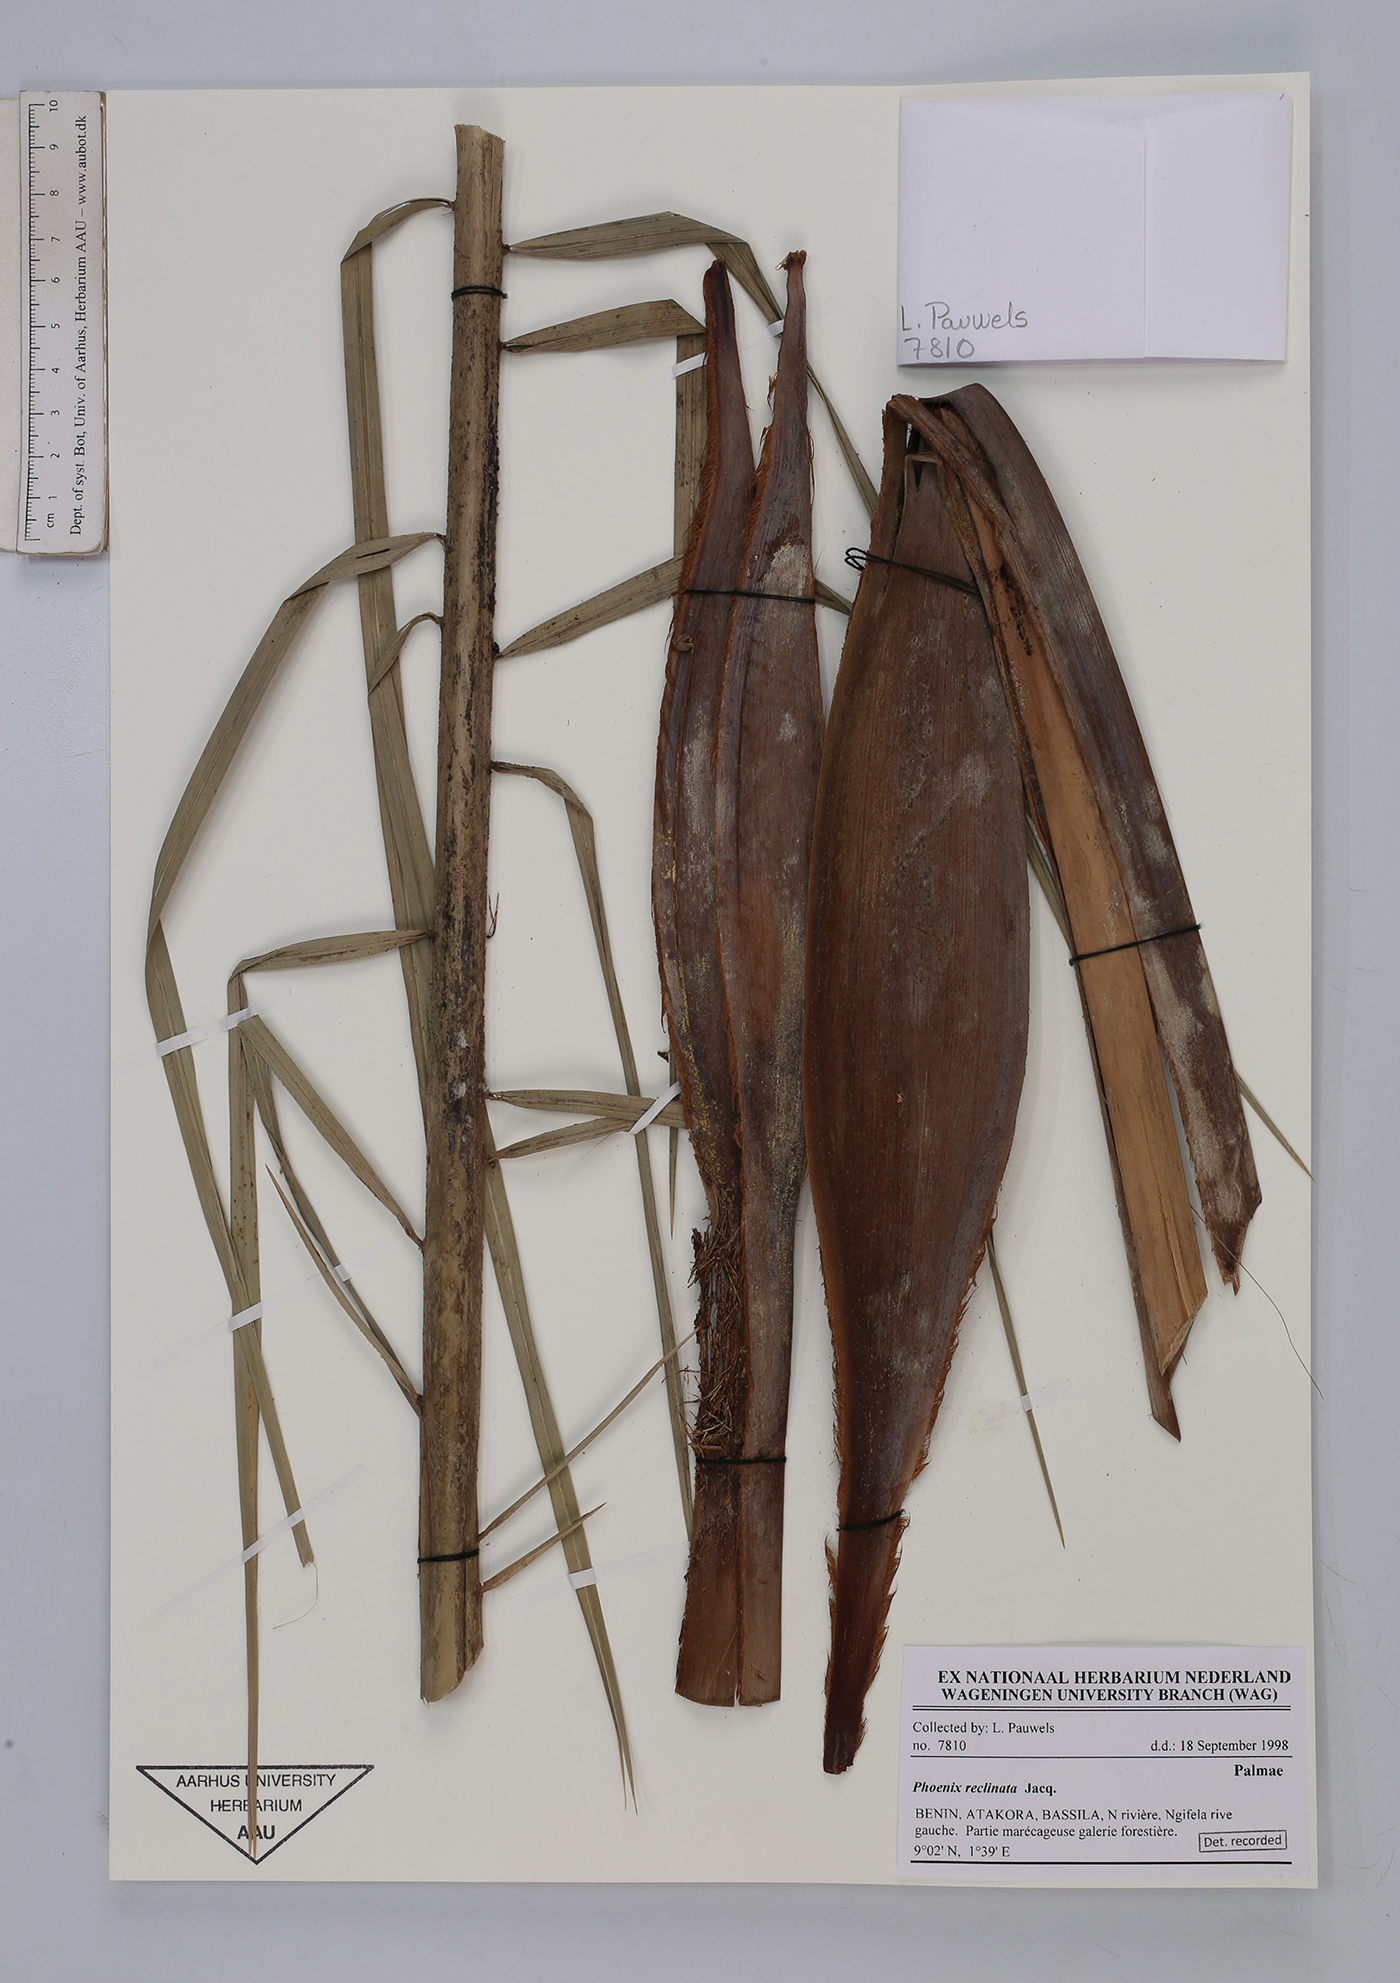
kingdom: Plantae
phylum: Tracheophyta
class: Liliopsida
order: Arecales
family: Arecaceae
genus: Phoenix
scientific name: Phoenix reclinata
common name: Senegal date palm
